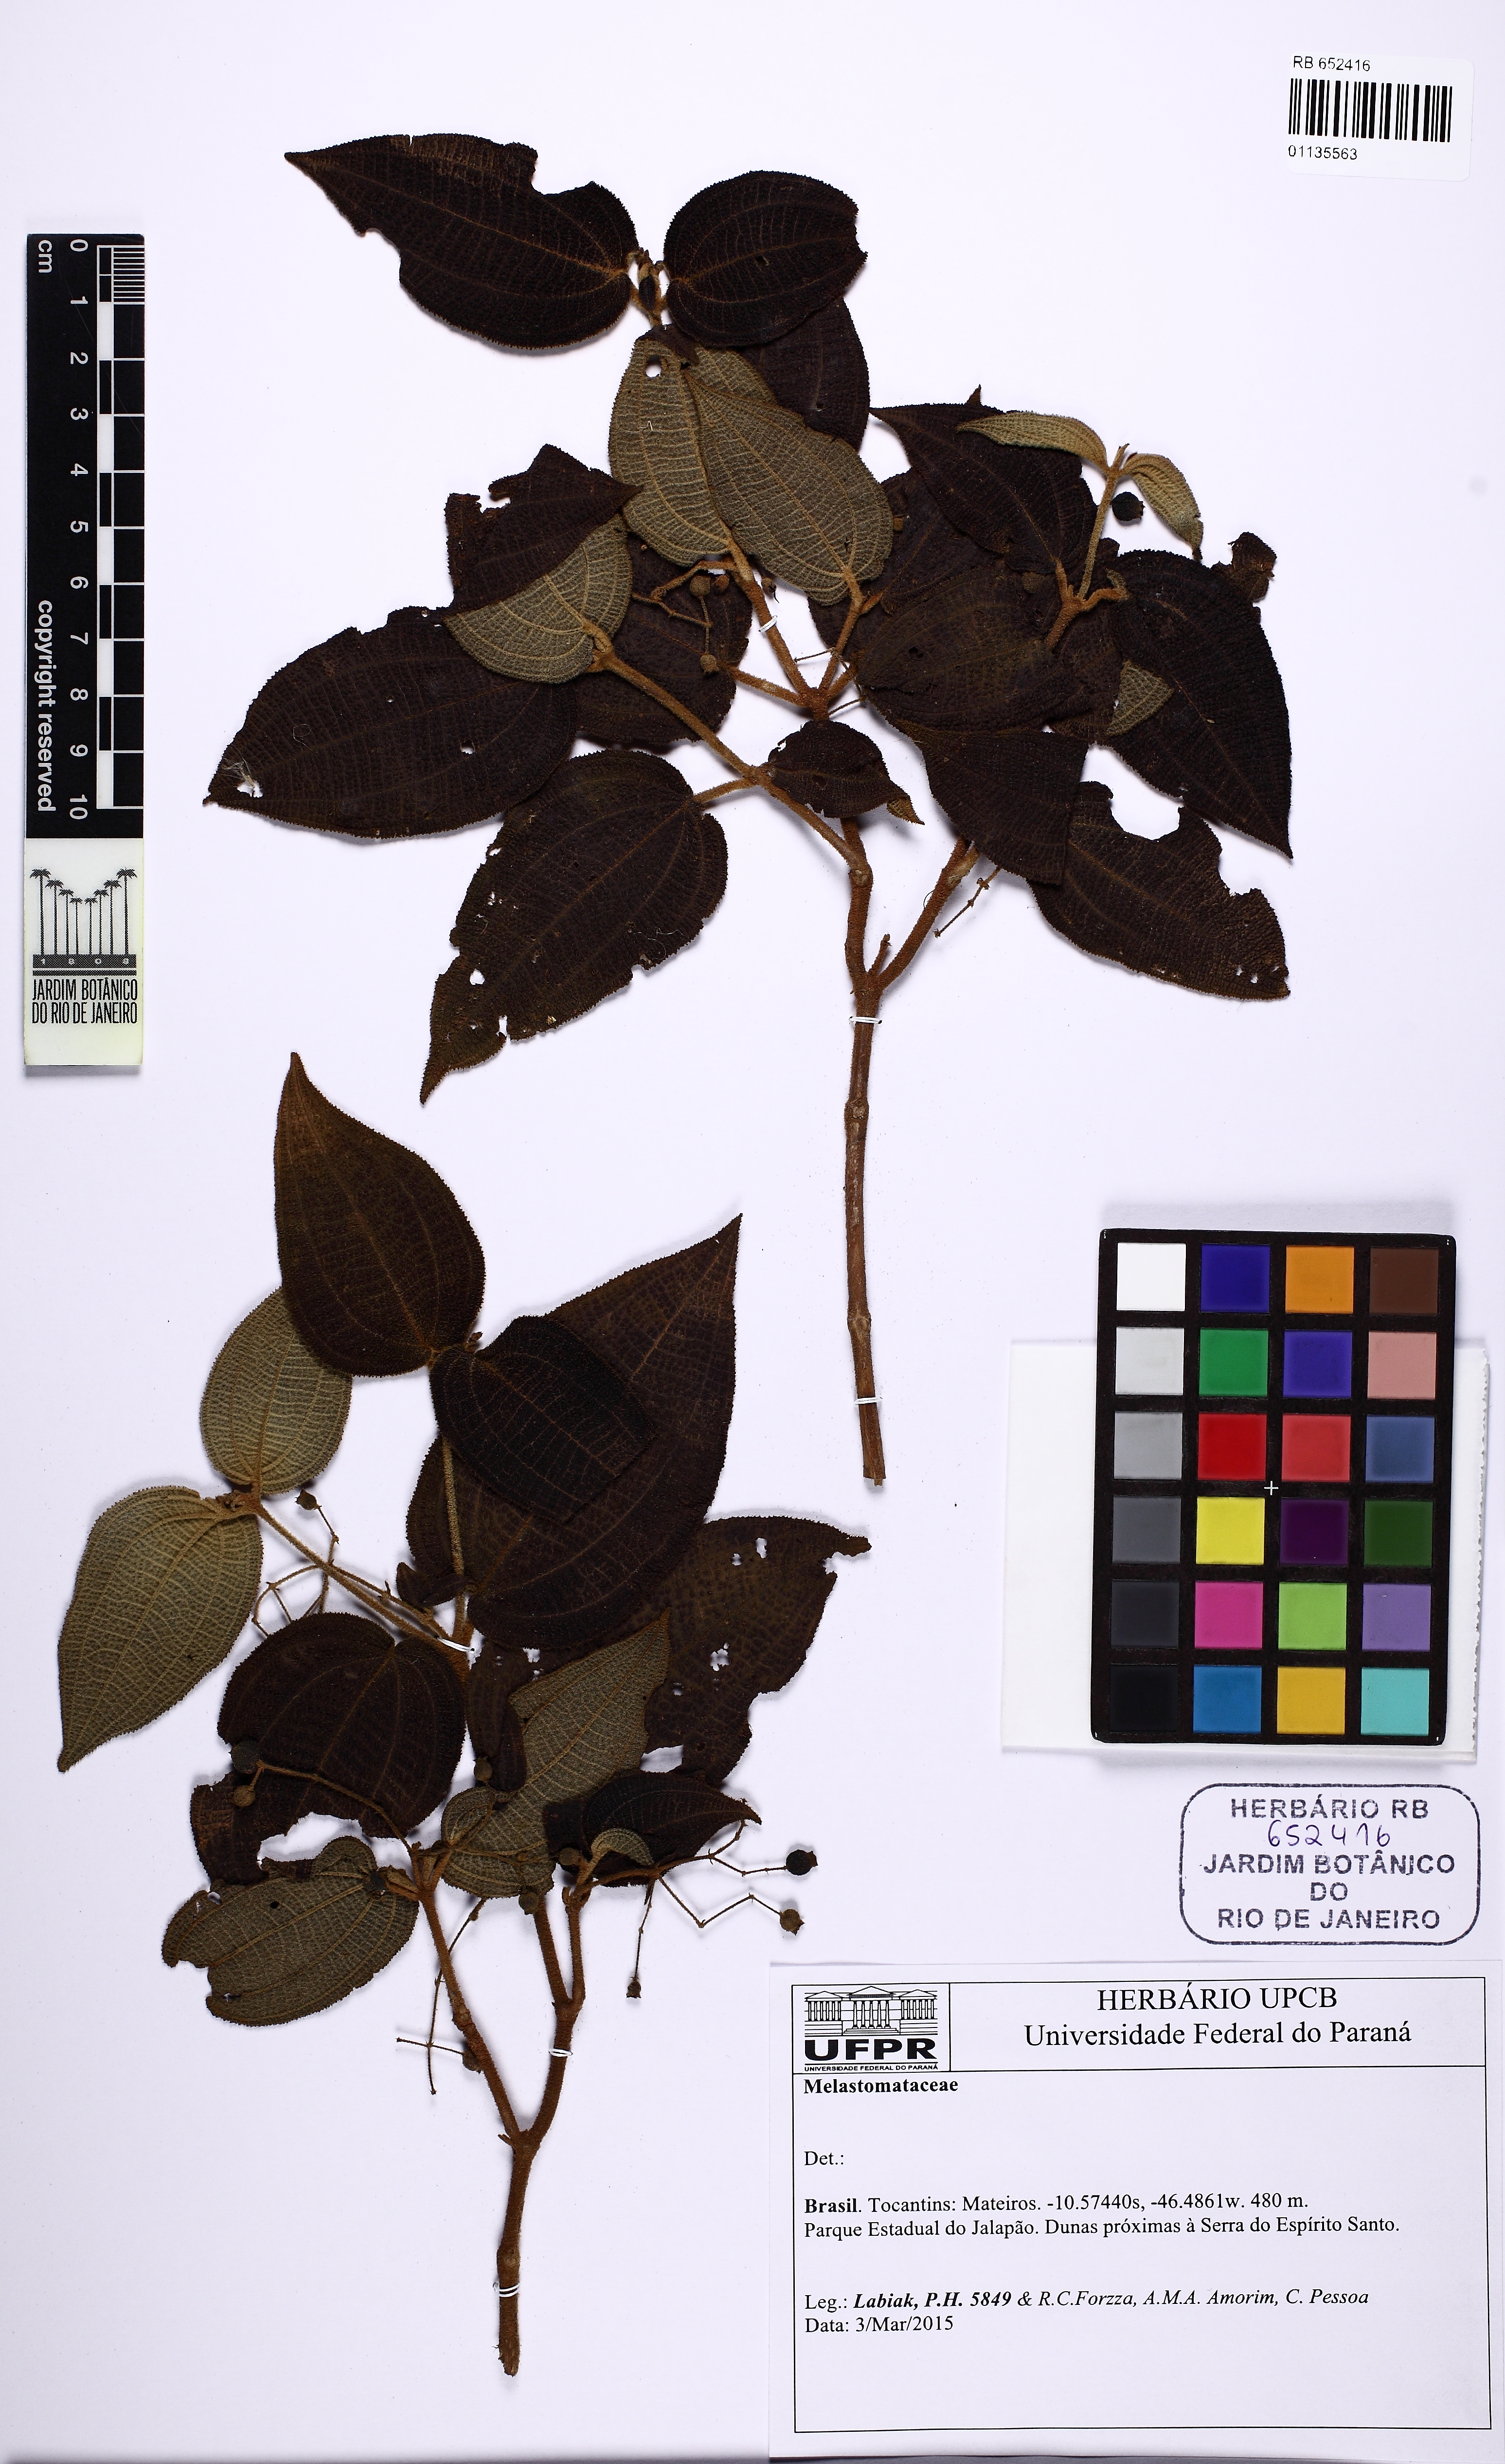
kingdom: Plantae
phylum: Tracheophyta
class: Magnoliopsida
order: Myrtales
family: Melastomataceae
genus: Miconia
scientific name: Miconia
